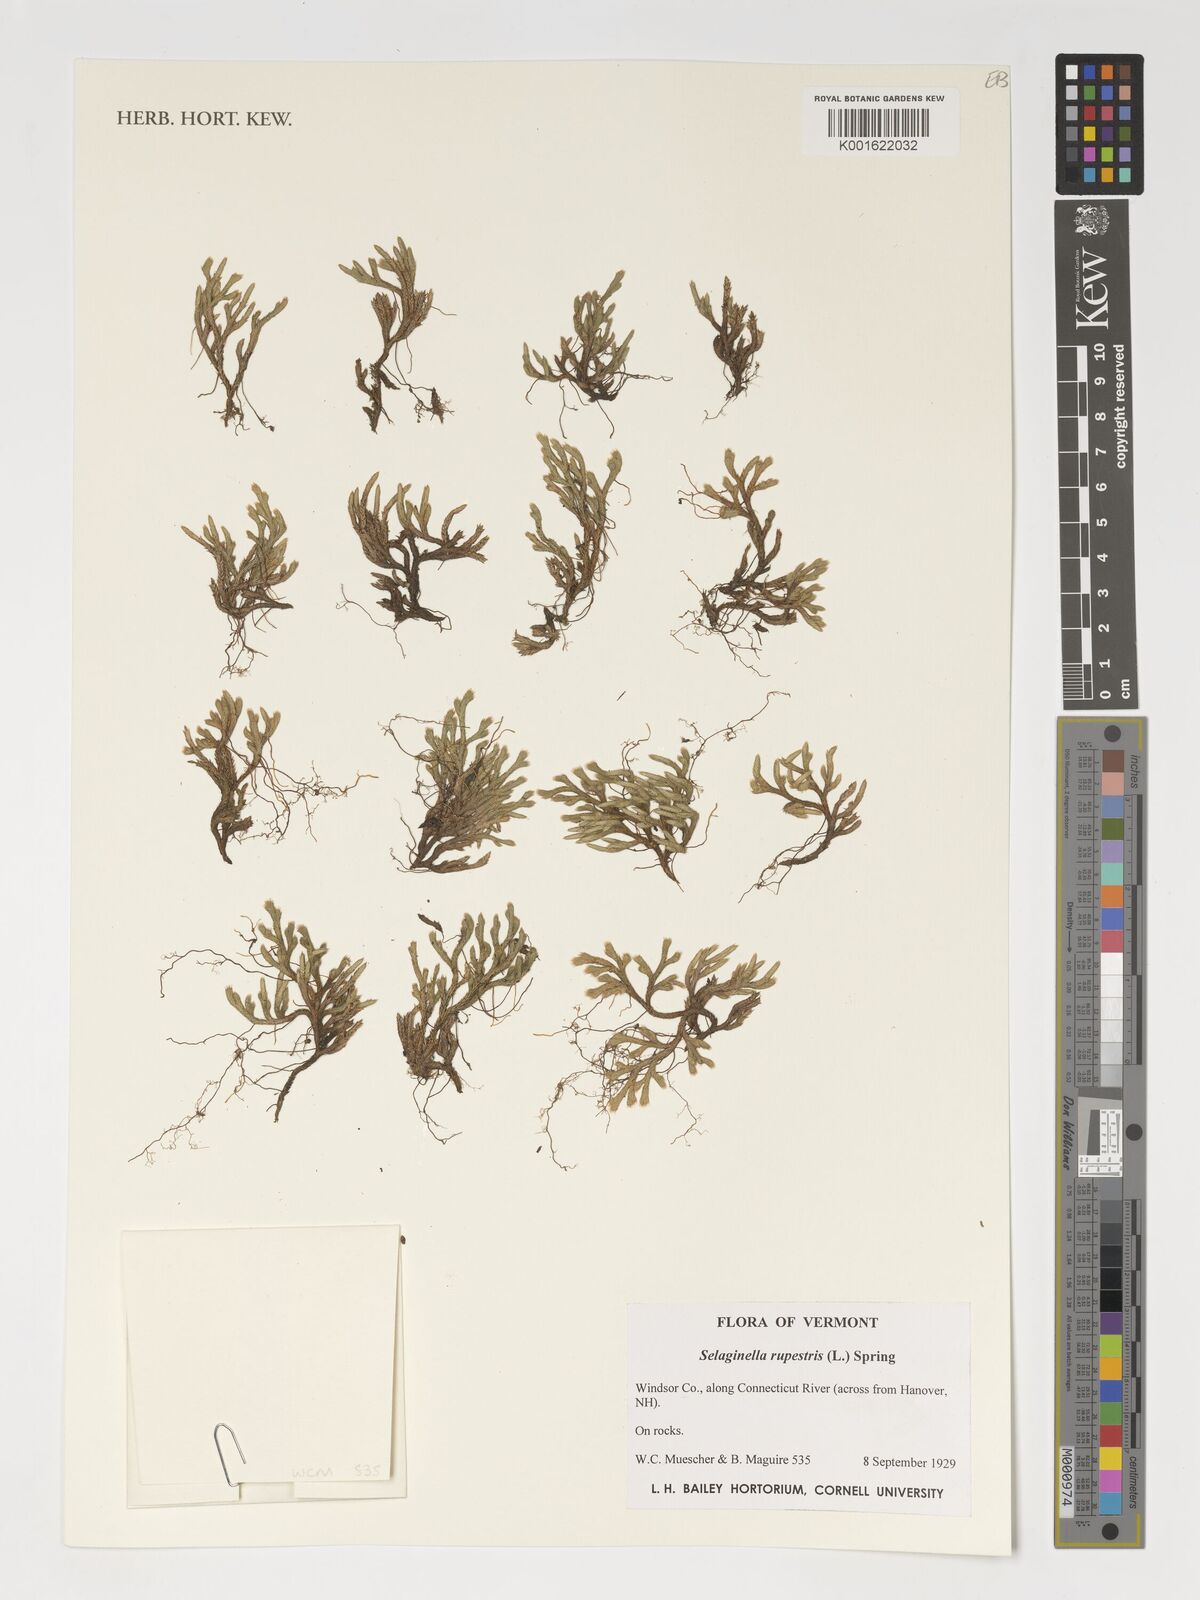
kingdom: Plantae
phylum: Tracheophyta
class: Lycopodiopsida
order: Selaginellales
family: Selaginellaceae
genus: Selaginella
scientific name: Selaginella rupestris
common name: Dwarf spikemoss
